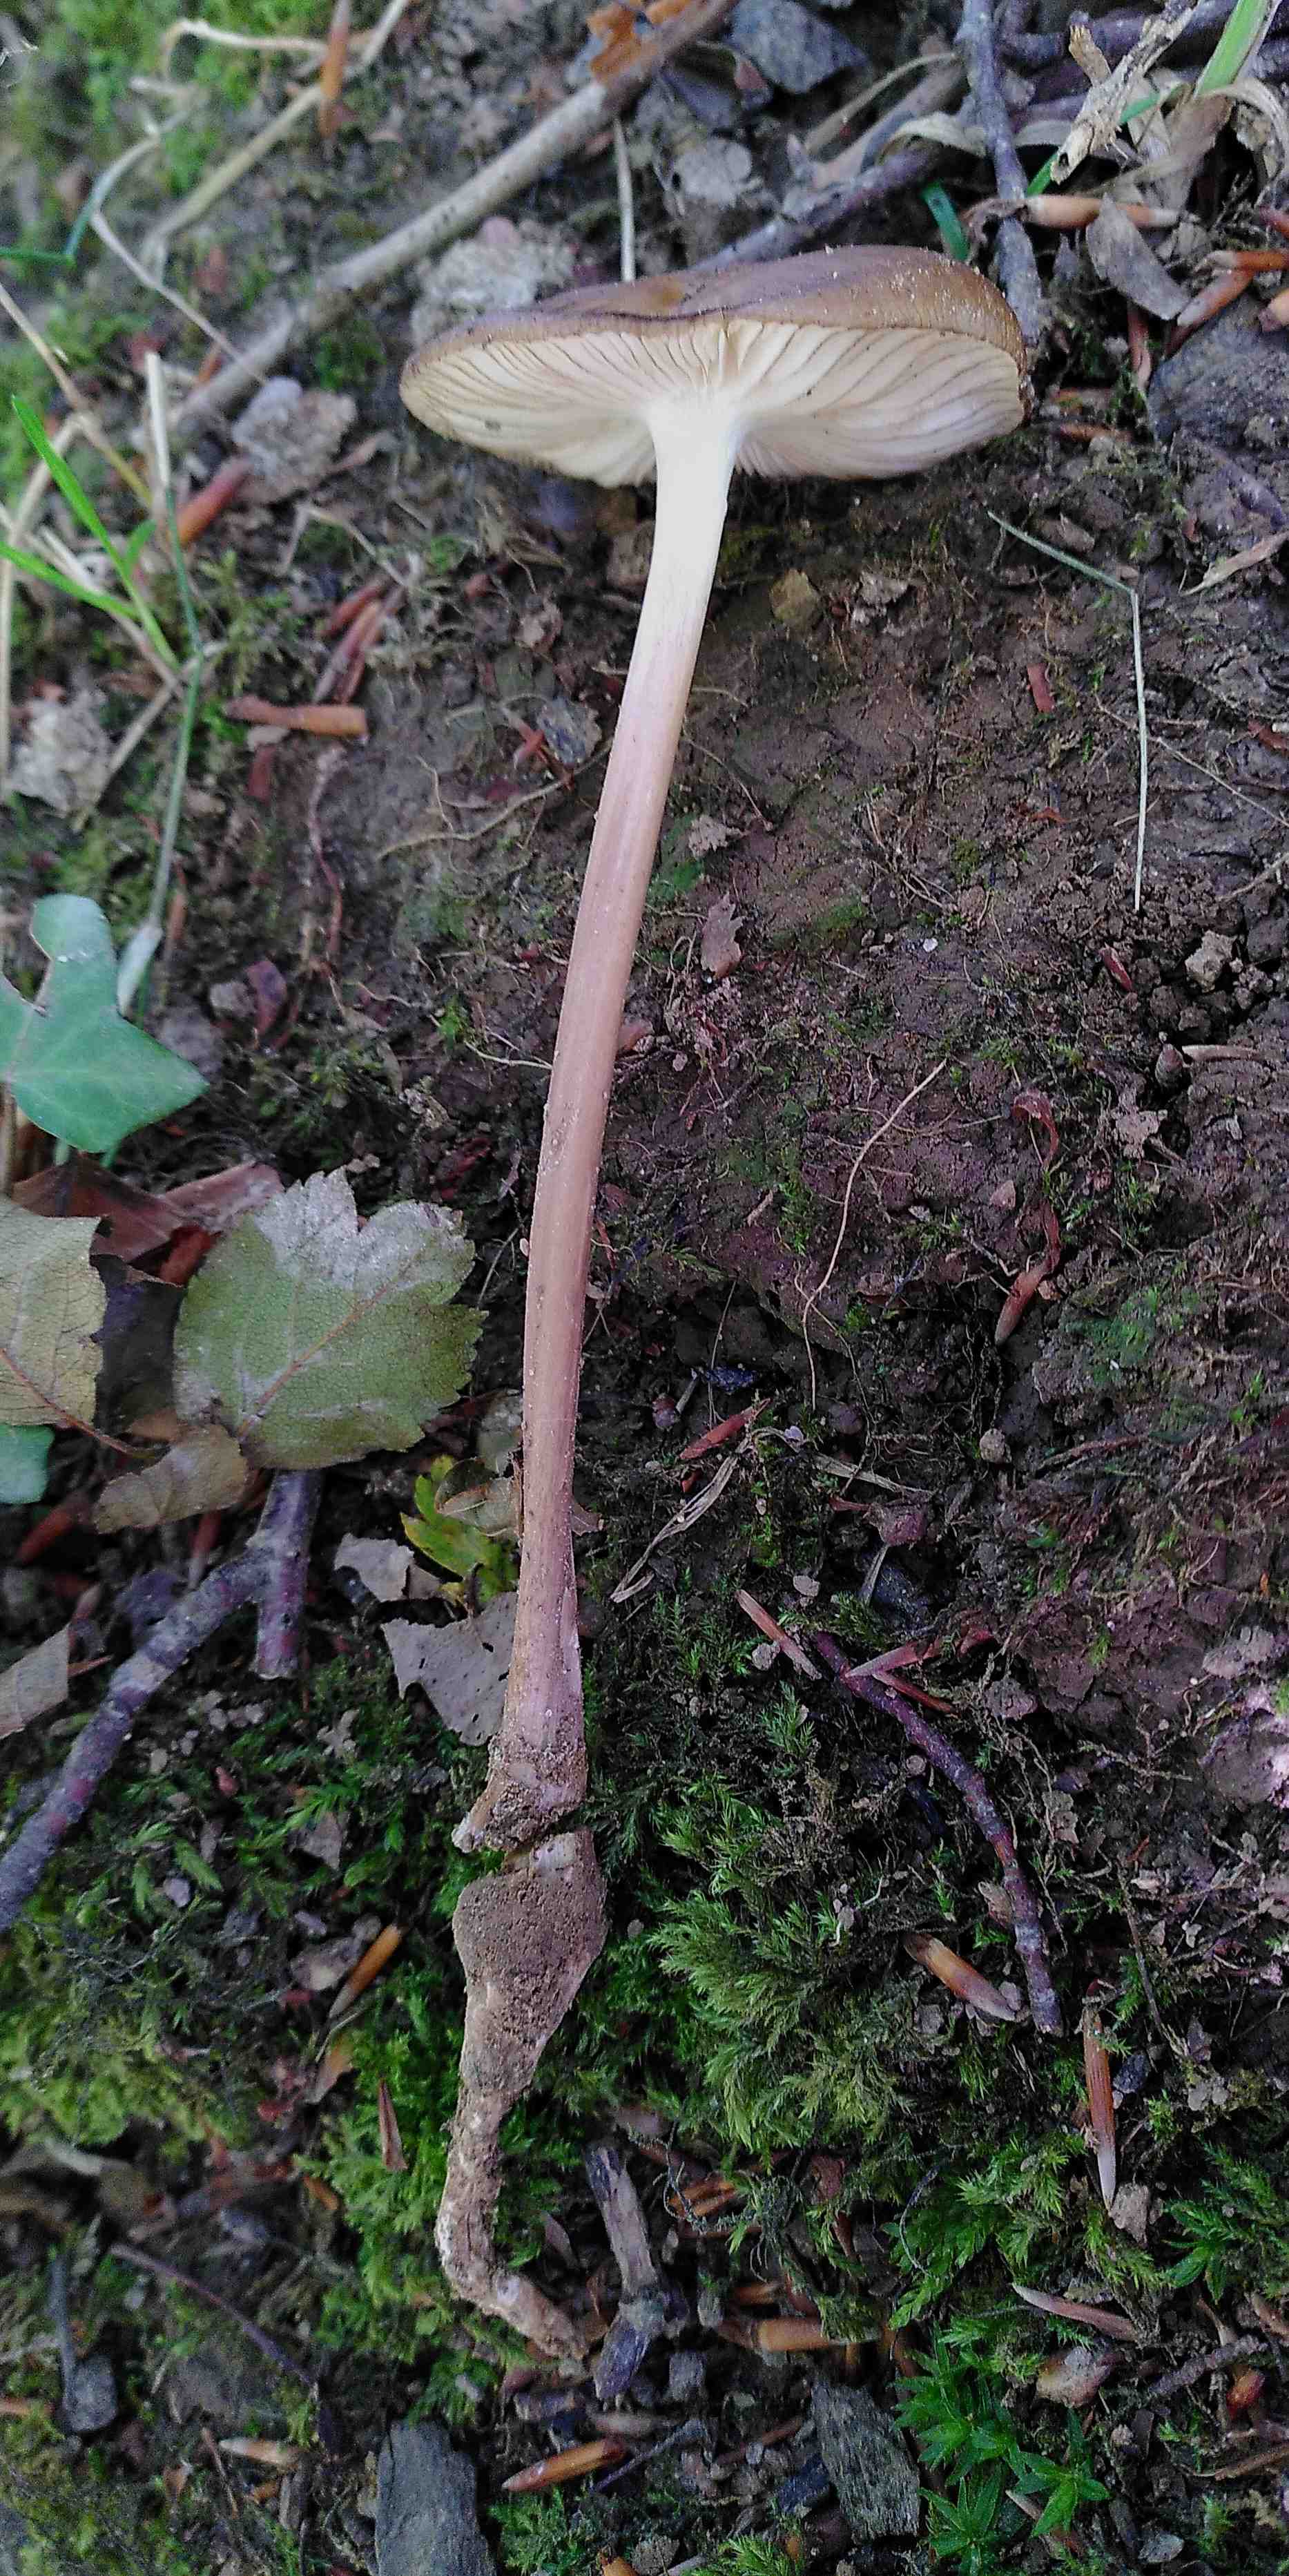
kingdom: Fungi
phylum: Basidiomycota
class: Agaricomycetes
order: Agaricales
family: Physalacriaceae
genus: Hymenopellis
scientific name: Hymenopellis radicata
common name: almindelig pælerodshat
